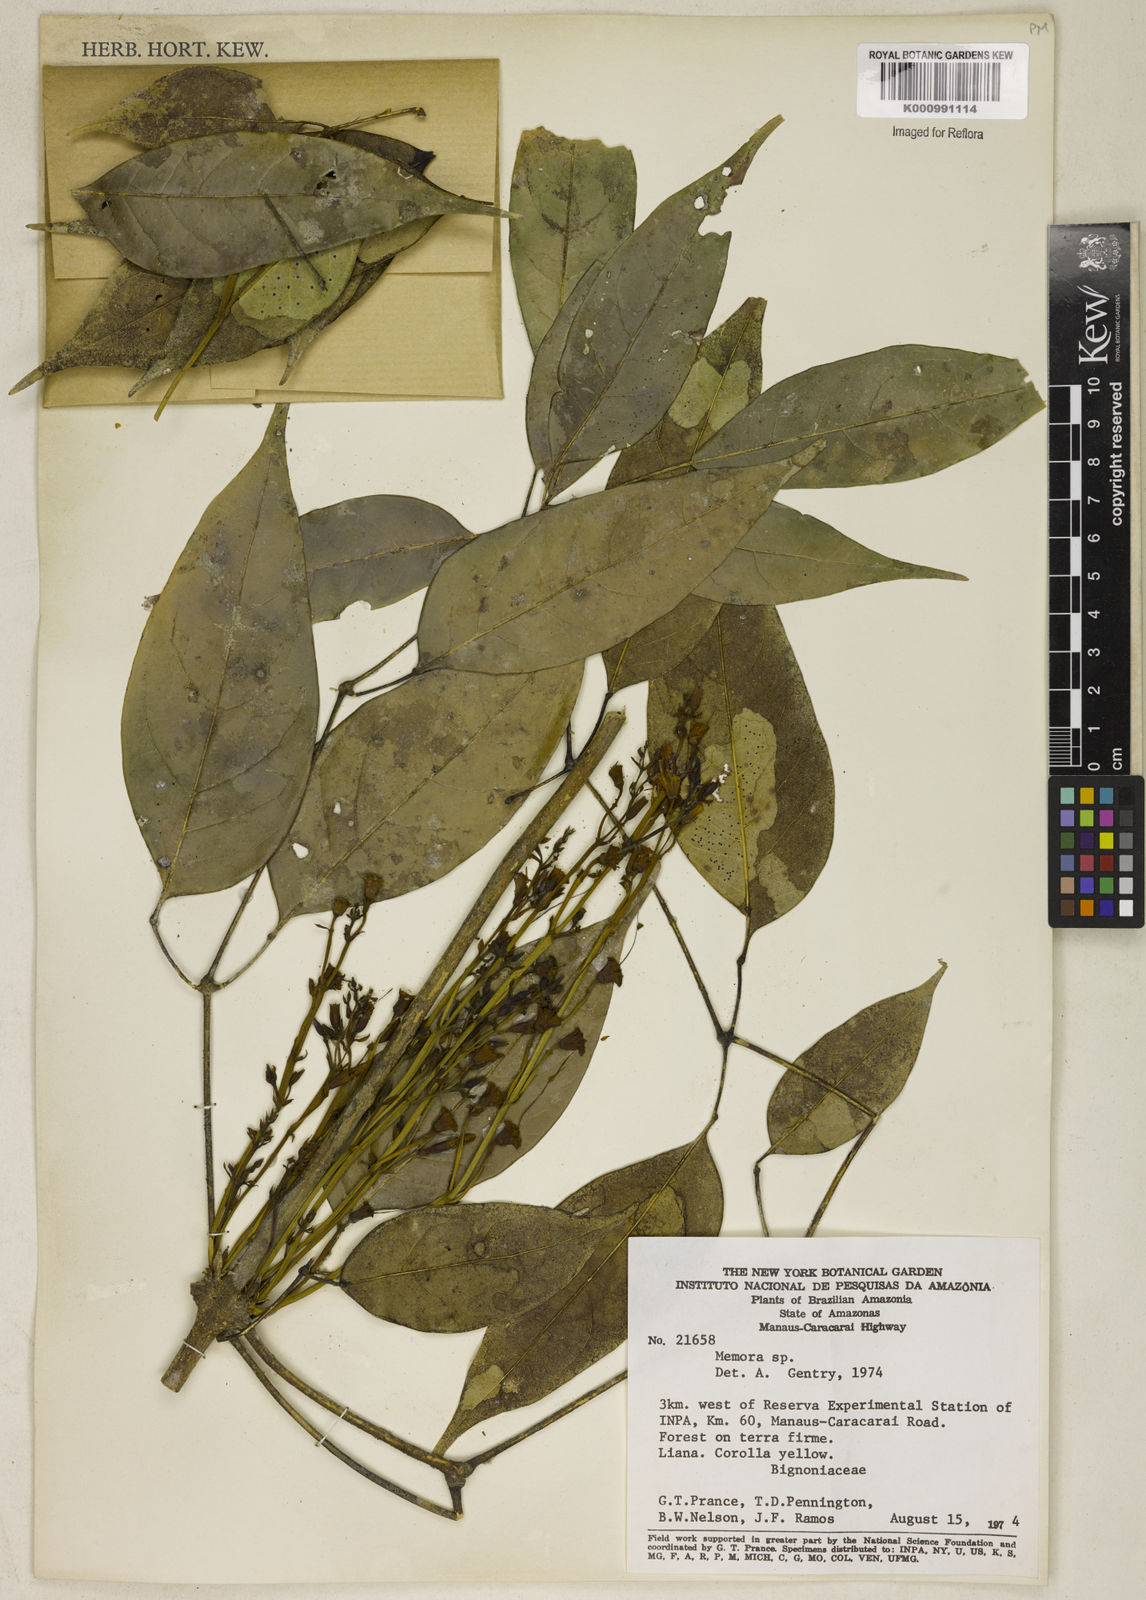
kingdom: Plantae
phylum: Tracheophyta
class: Magnoliopsida
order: Lamiales
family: Bignoniaceae
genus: Adenocalymma
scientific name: Adenocalymma molle
